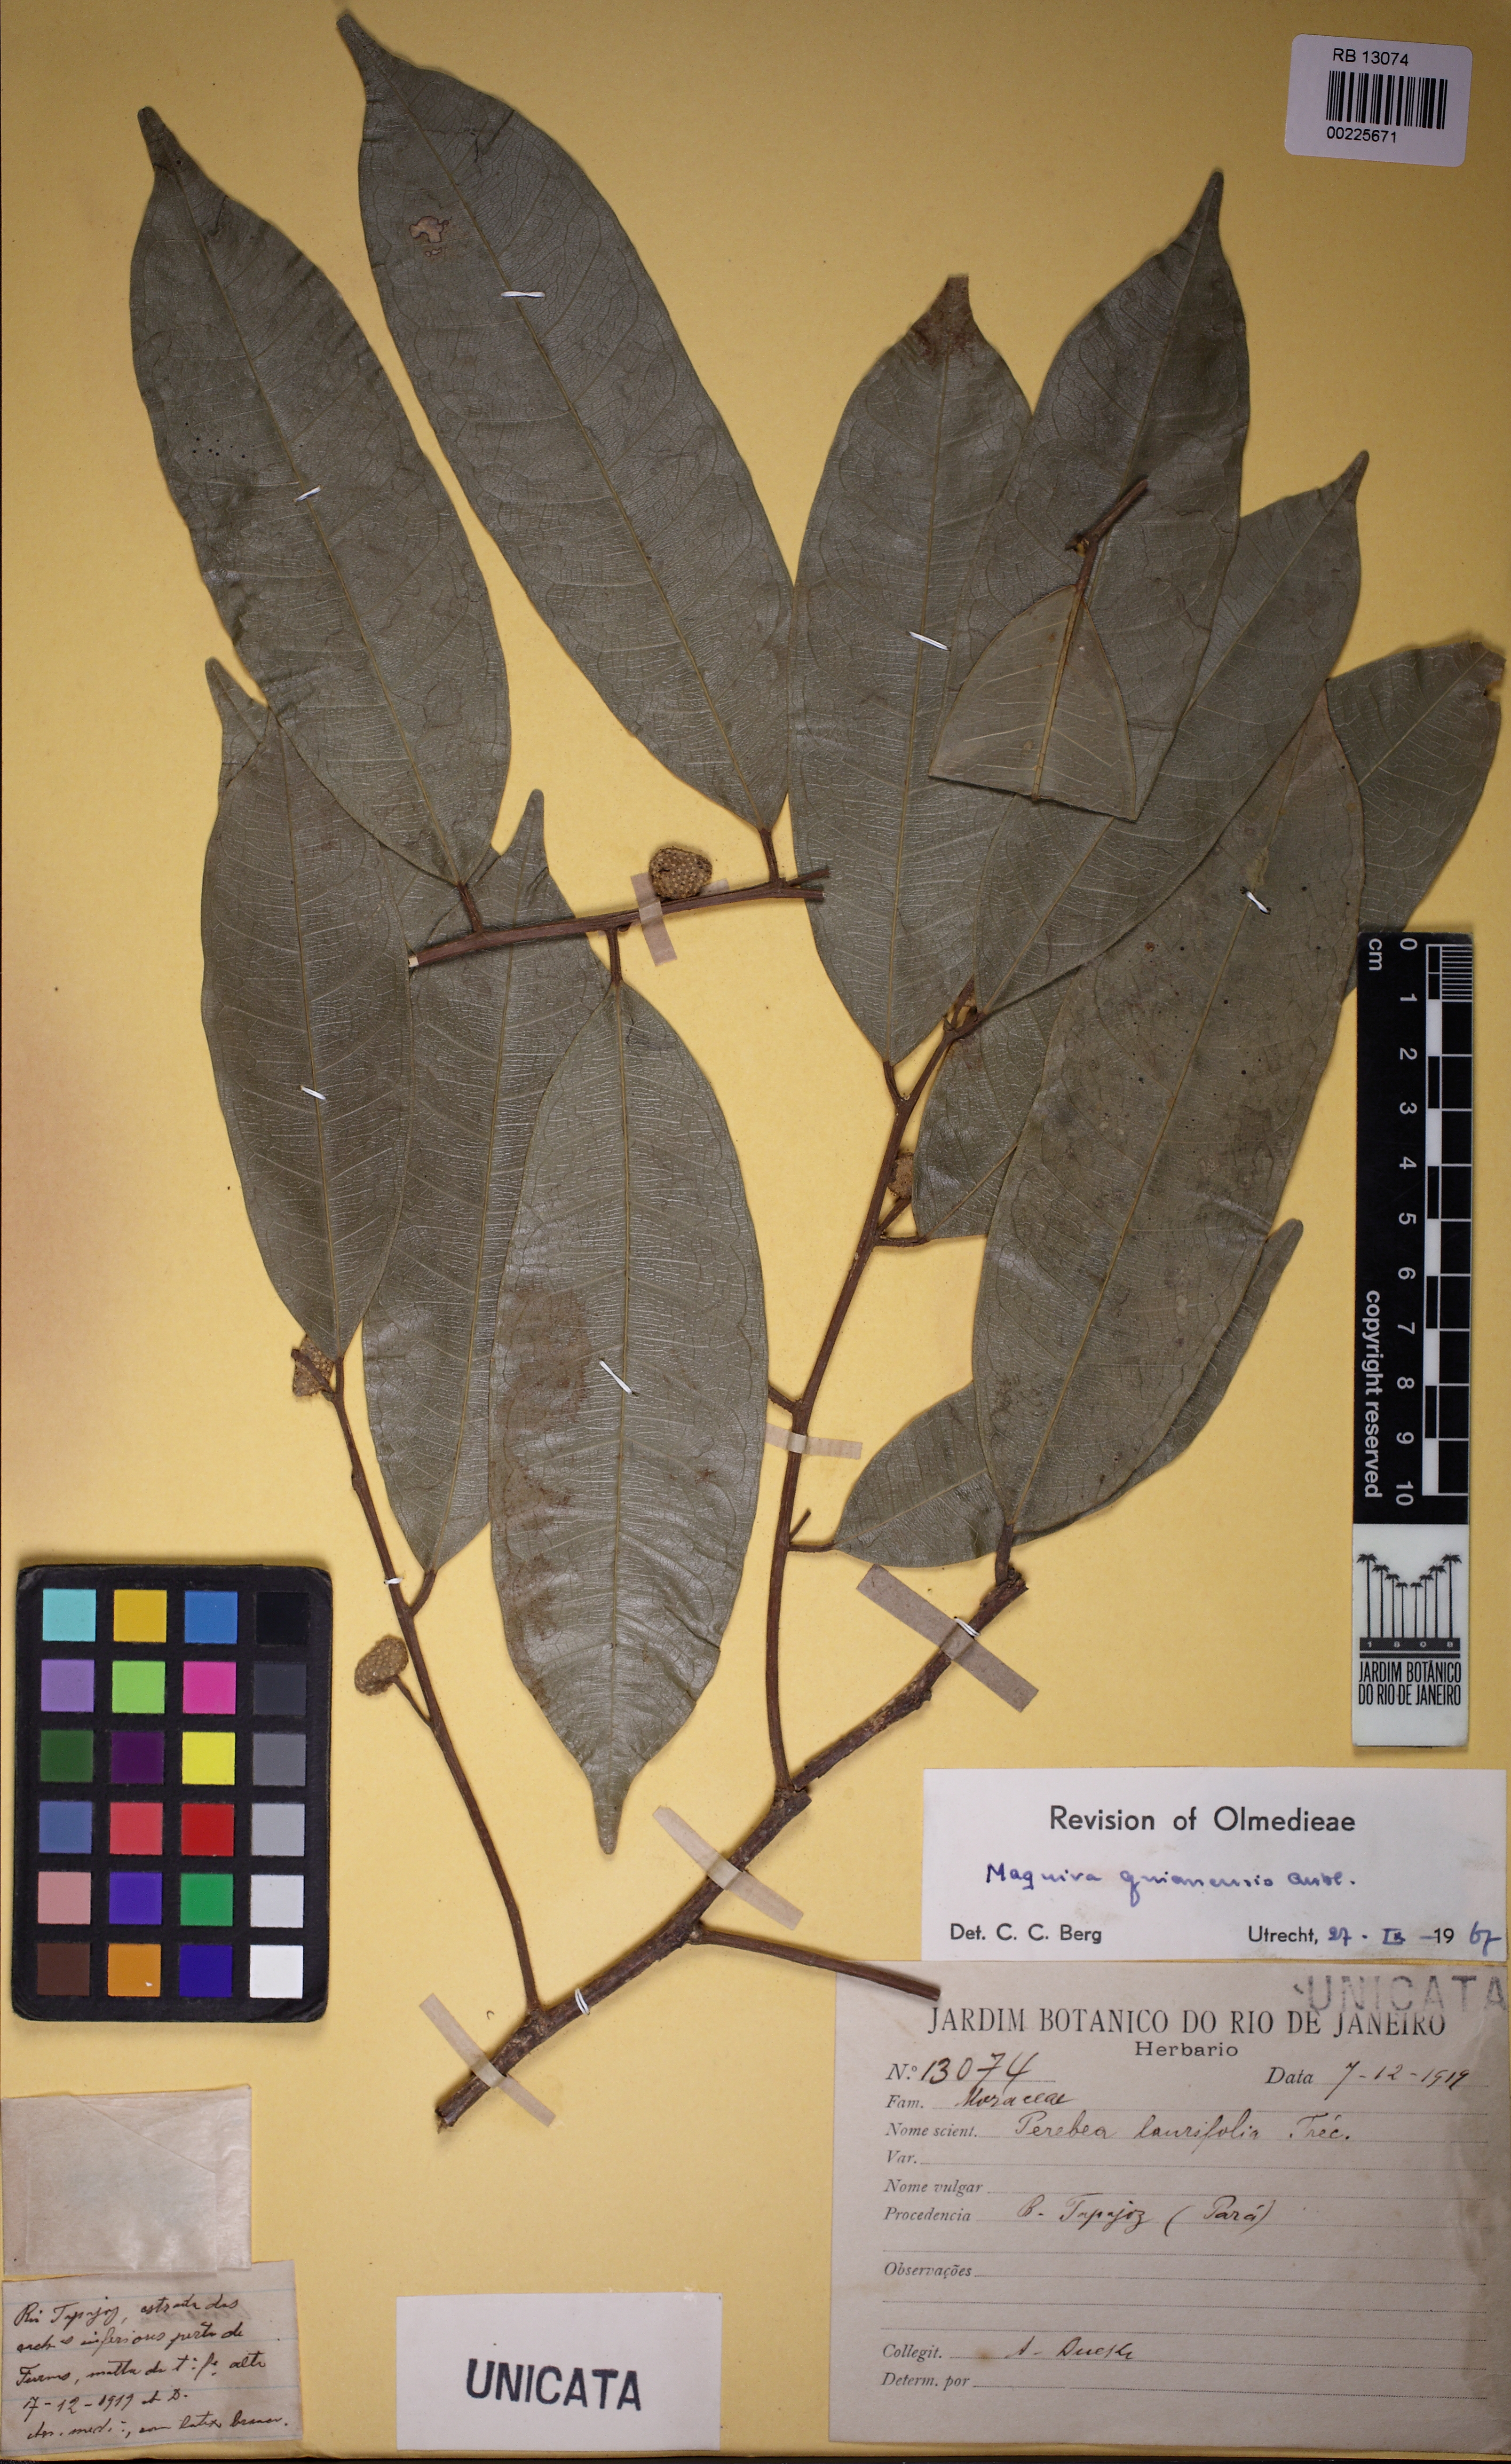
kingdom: Plantae
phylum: Tracheophyta
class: Magnoliopsida
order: Rosales
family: Moraceae
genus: Maquira
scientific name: Maquira guianensis
